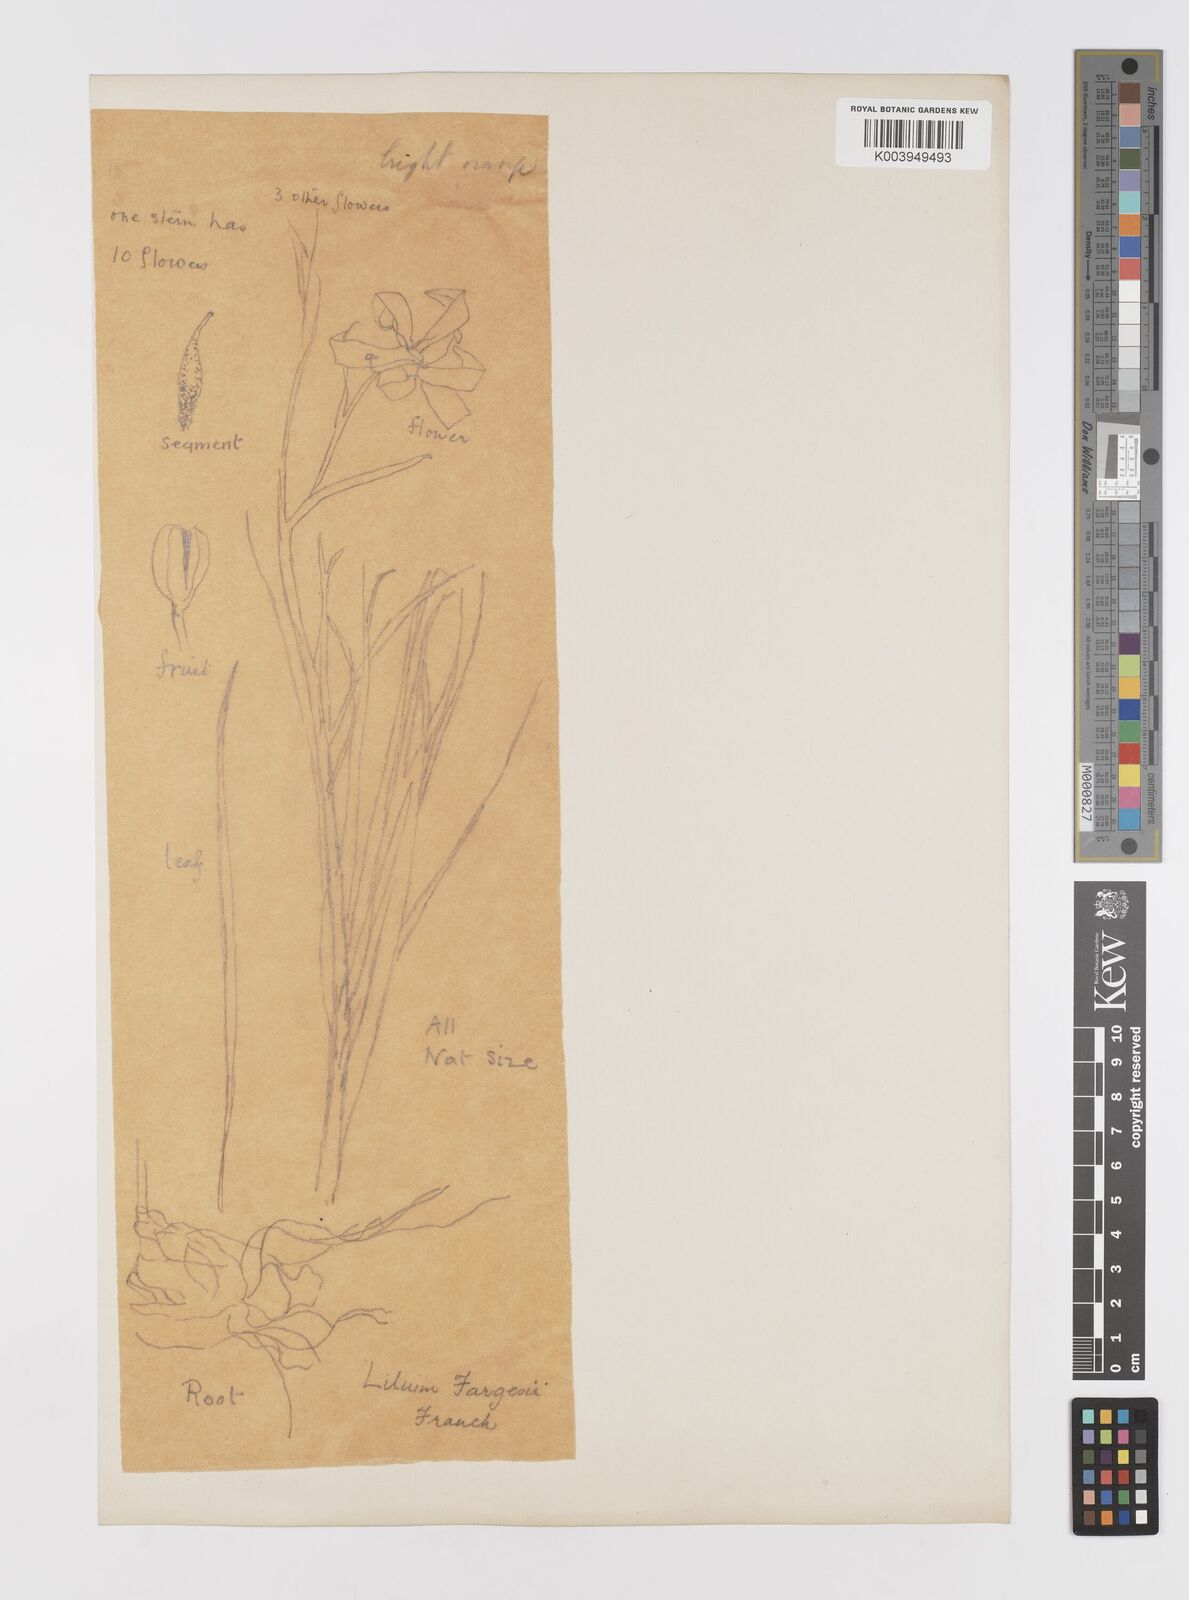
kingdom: Plantae
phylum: Tracheophyta
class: Liliopsida
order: Liliales
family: Liliaceae
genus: Lilium
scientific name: Lilium fargesii
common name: Farges's lily
